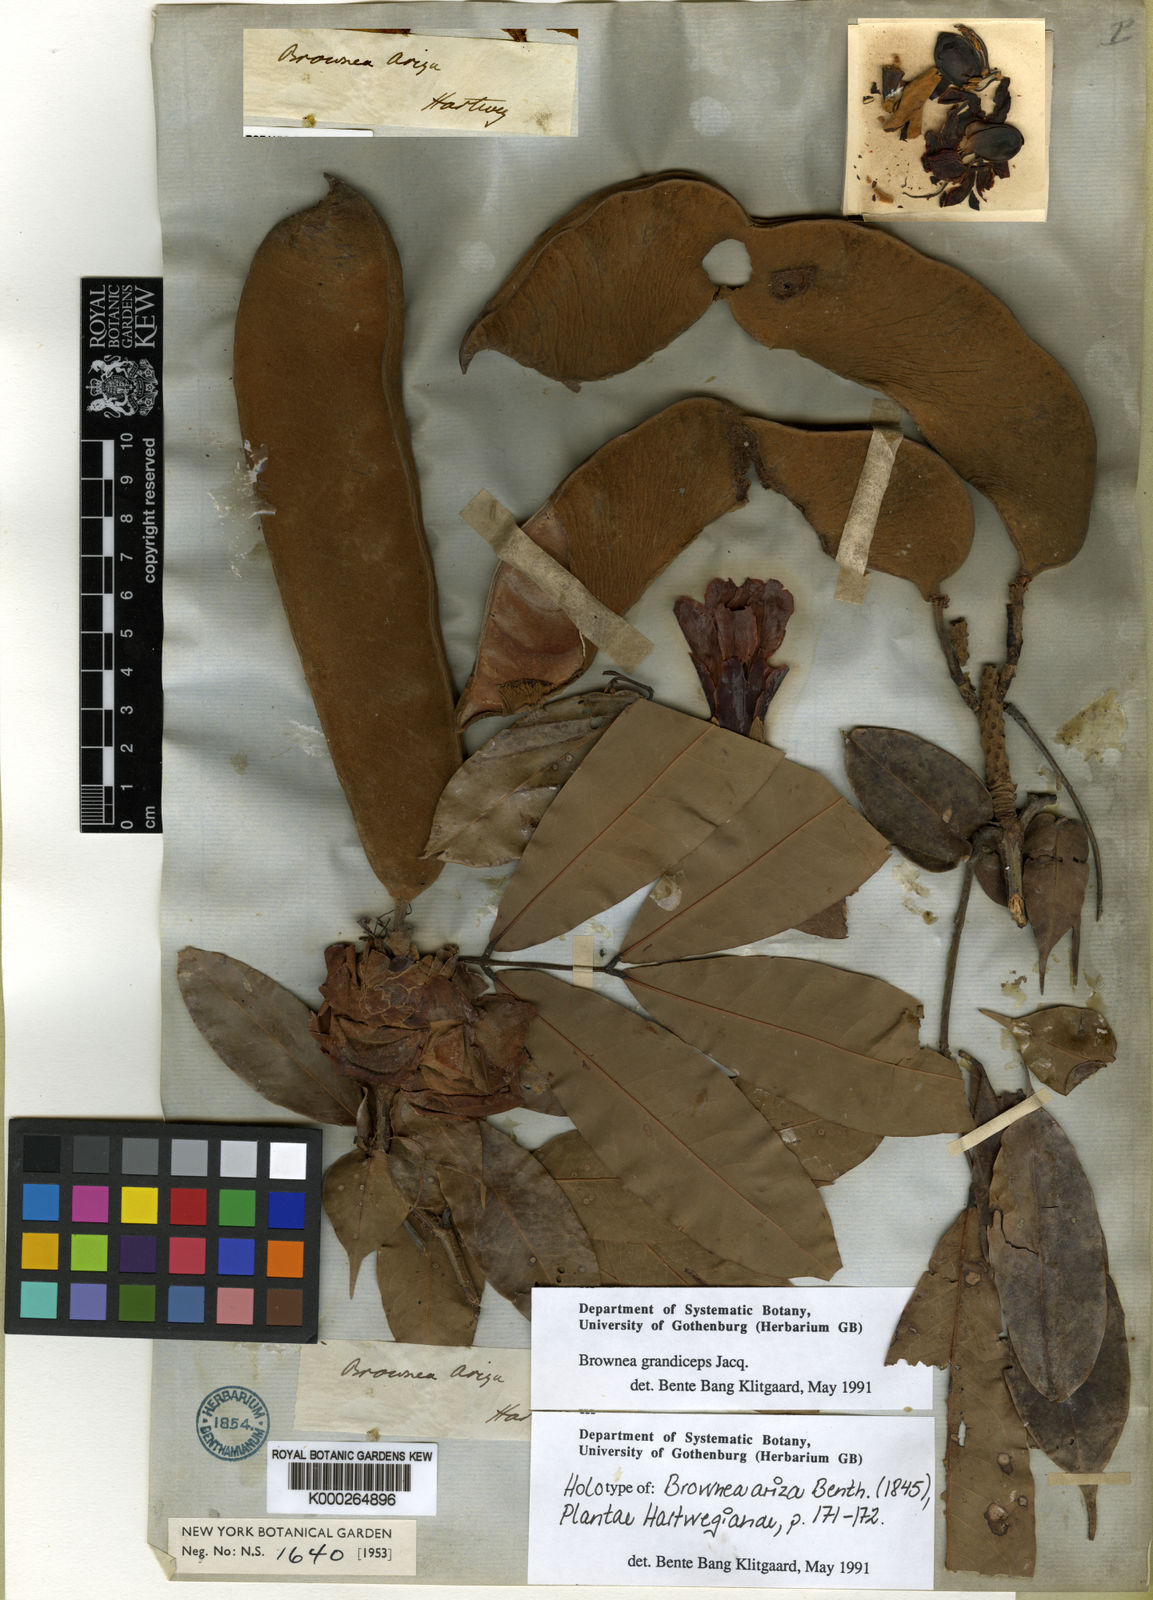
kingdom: Plantae
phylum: Tracheophyta
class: Magnoliopsida
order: Fabales
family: Fabaceae
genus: Brownea
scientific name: Brownea grandiceps
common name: Rose-of-venezuela
